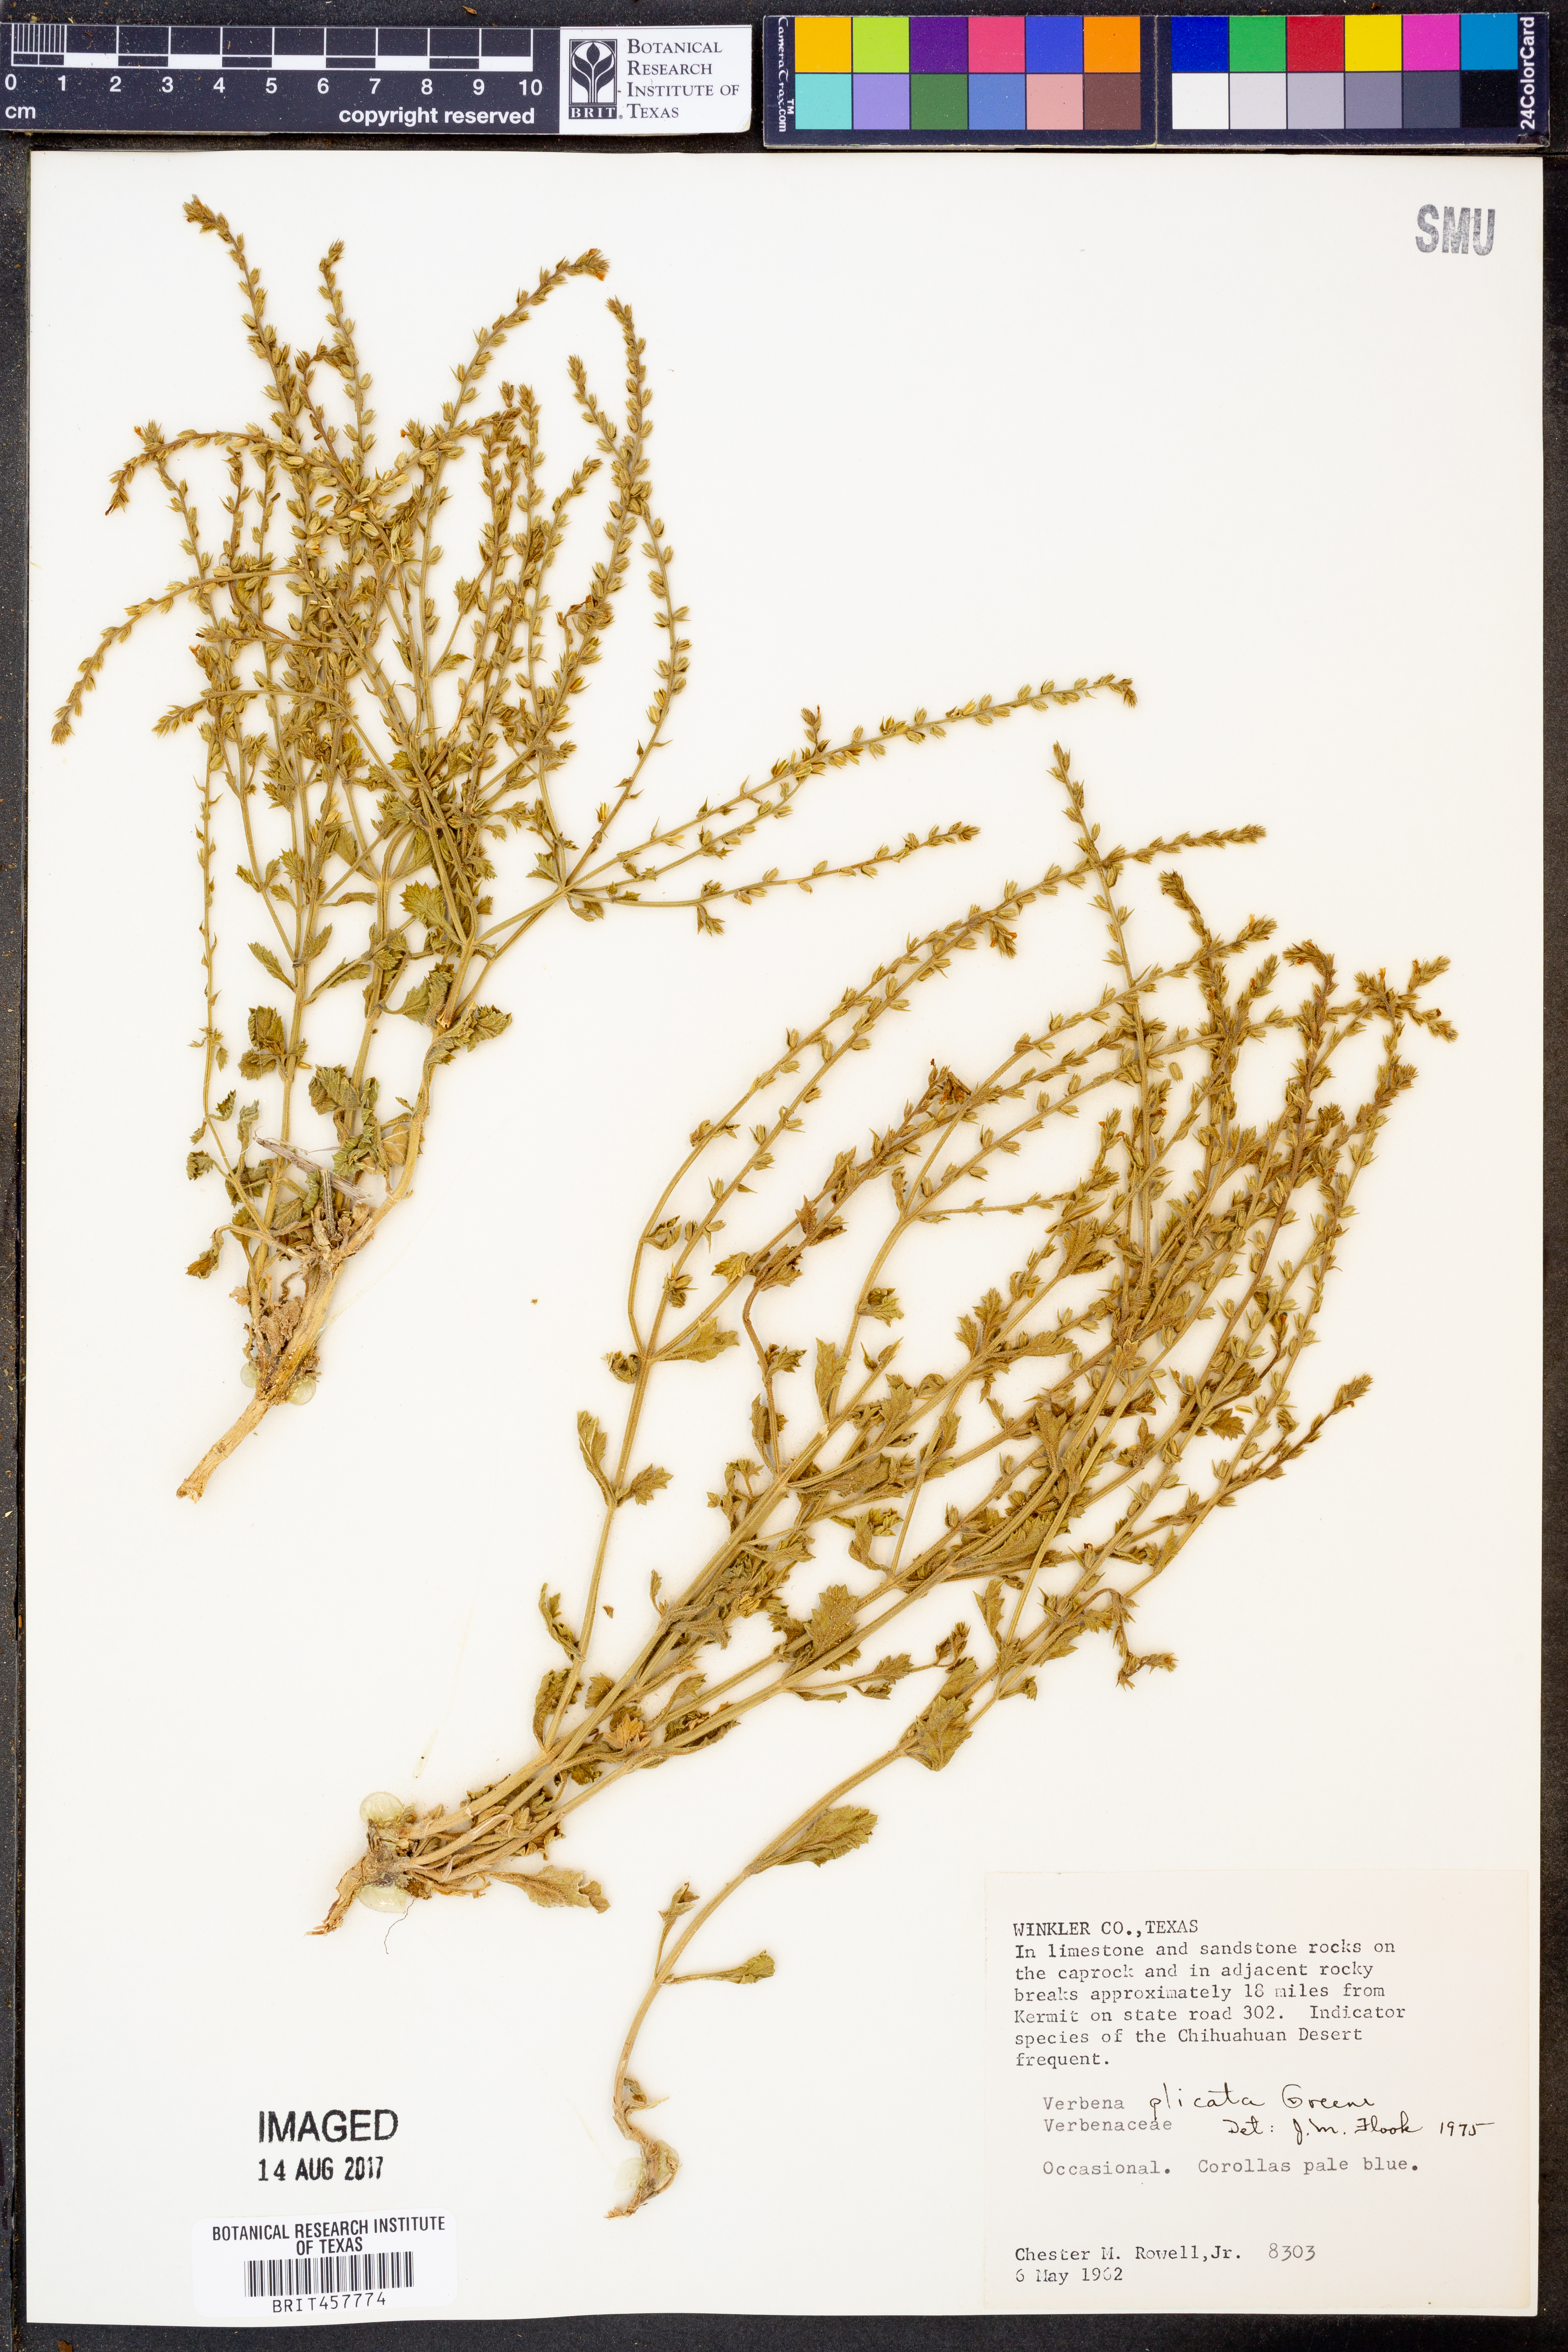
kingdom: Plantae
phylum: Tracheophyta
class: Magnoliopsida
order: Lamiales
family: Verbenaceae
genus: Verbena
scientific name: Verbena plicata
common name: Fan-leaf vervain
